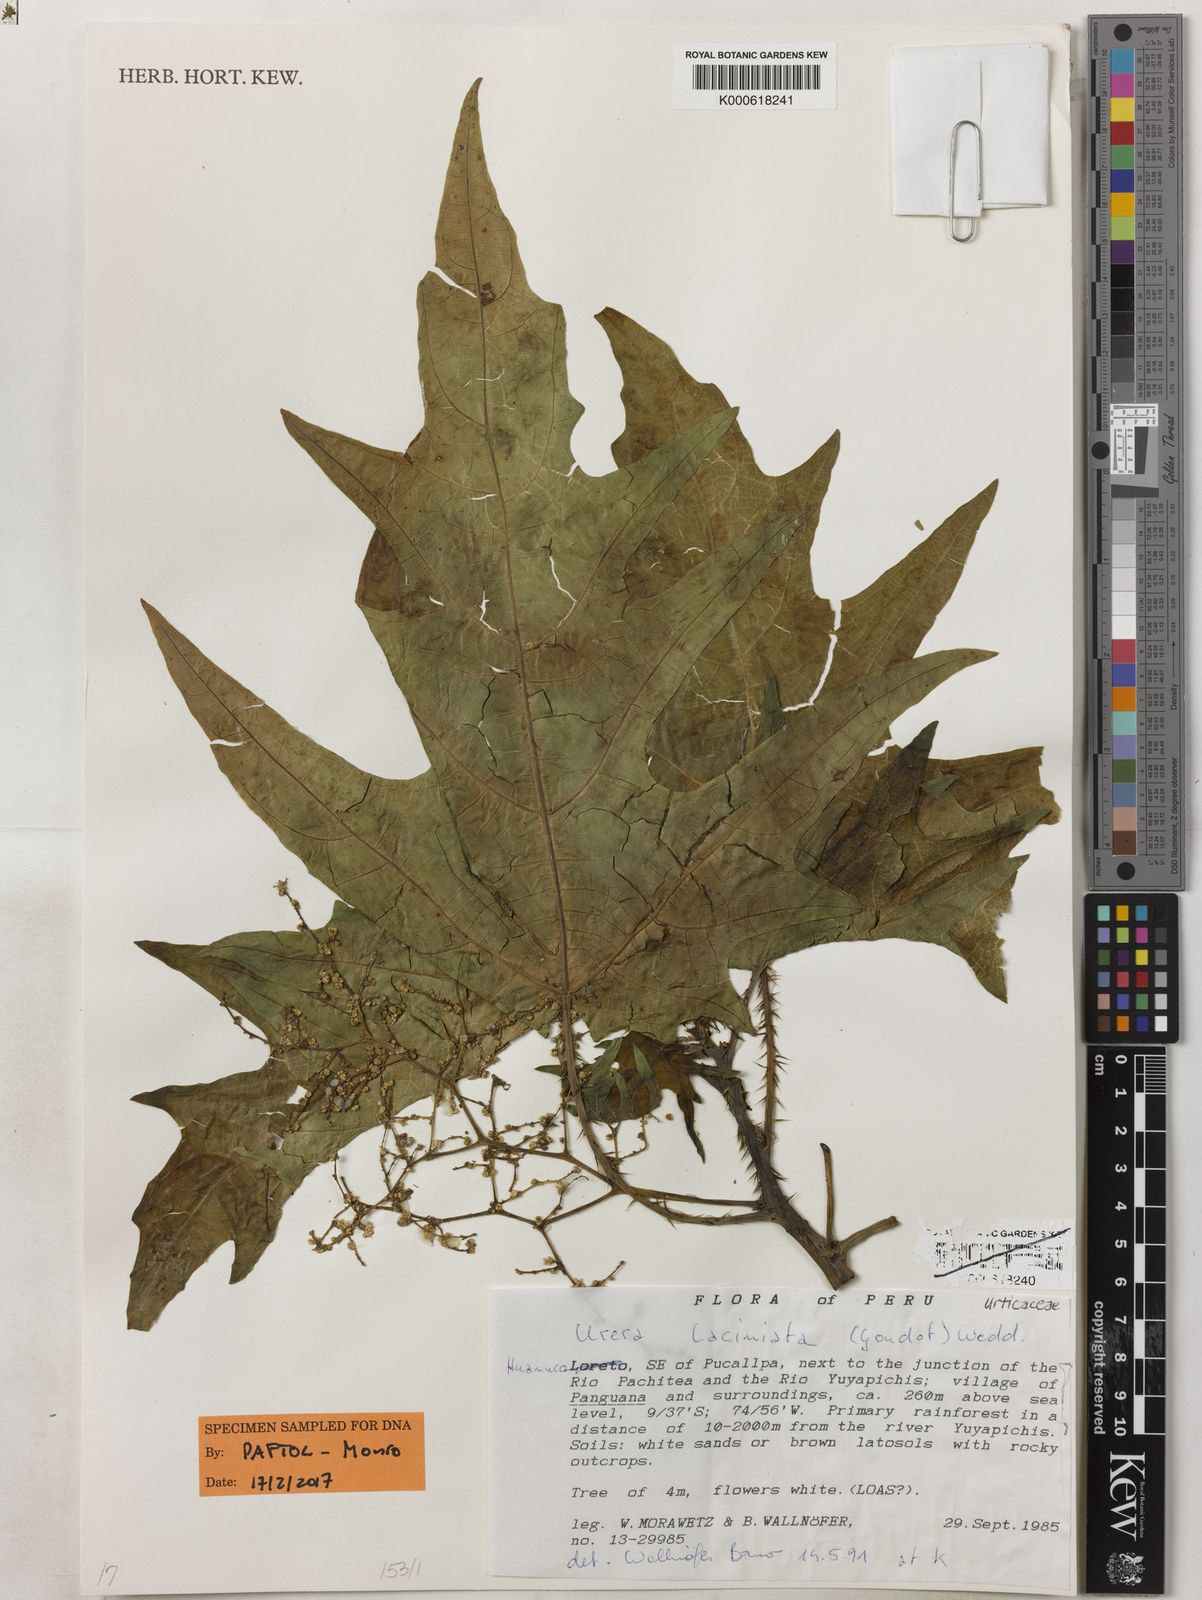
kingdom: Plantae
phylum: Tracheophyta
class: Magnoliopsida
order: Rosales
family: Urticaceae
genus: Urera
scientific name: Urera laciniata
